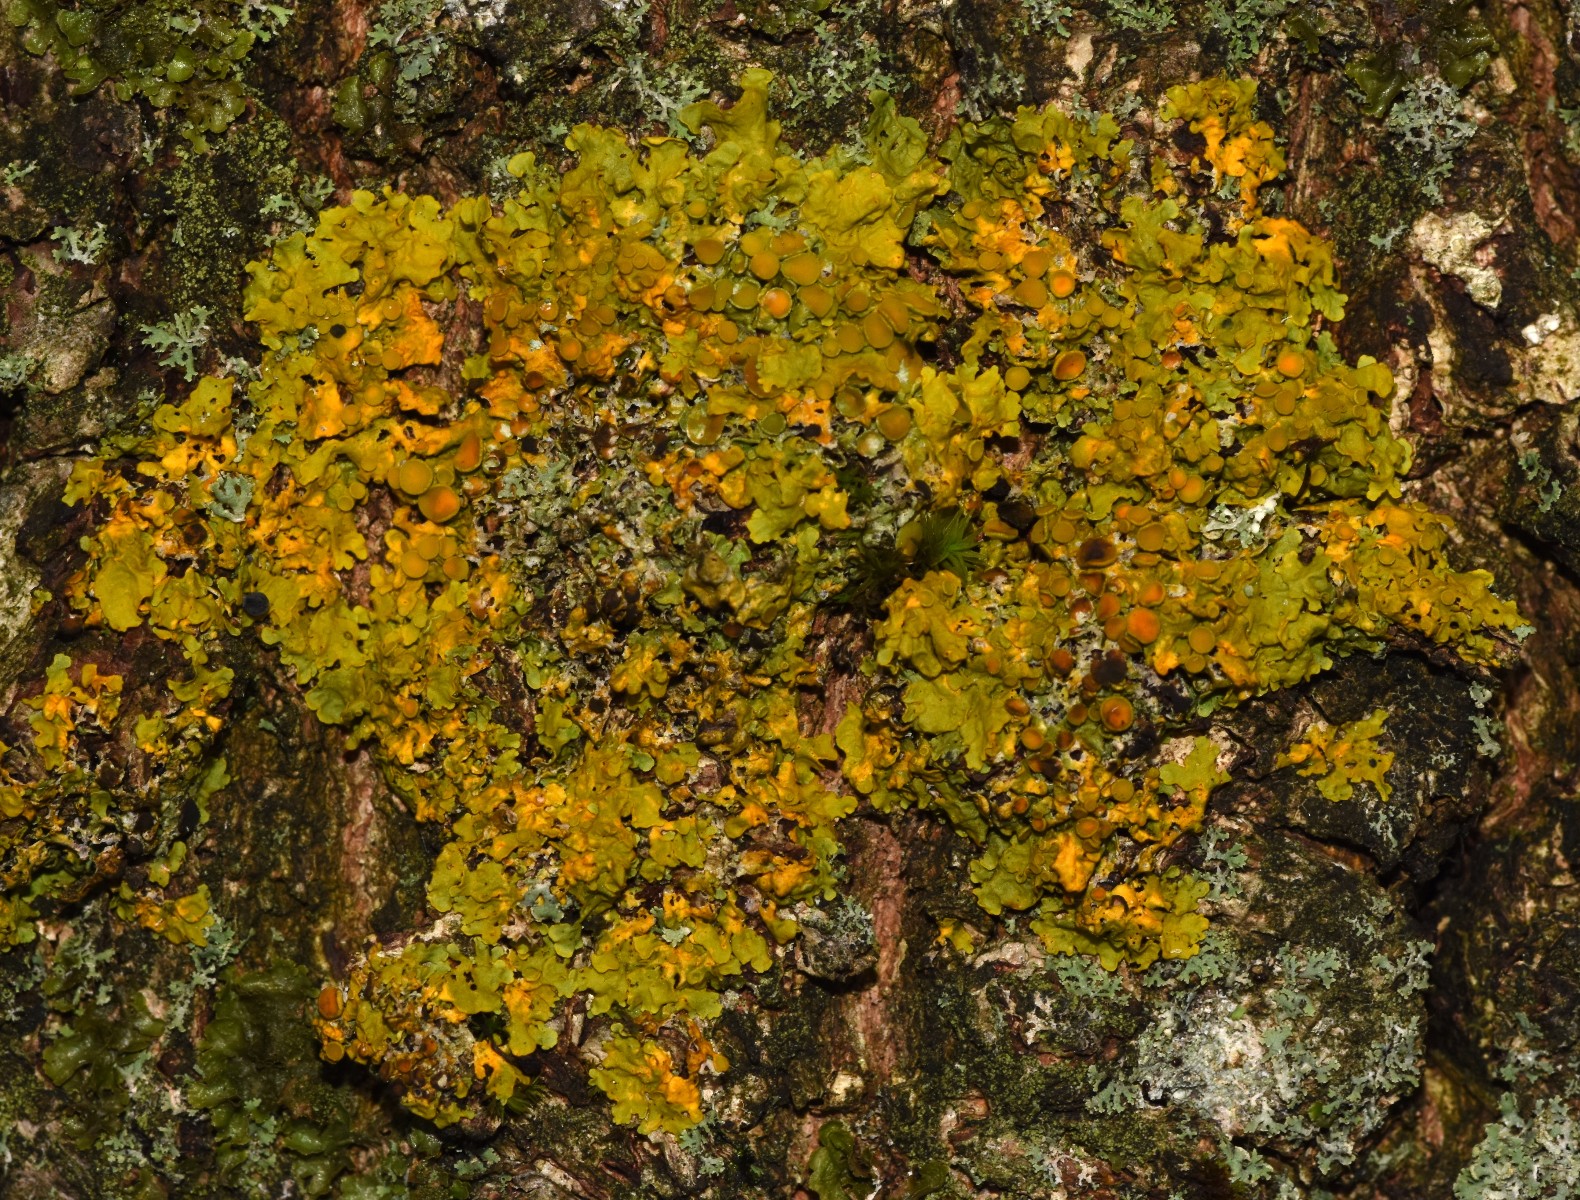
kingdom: Fungi
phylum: Ascomycota
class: Lecanoromycetes
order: Teloschistales
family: Teloschistaceae
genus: Xanthoria
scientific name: Xanthoria parietina
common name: almindelig væggelav
